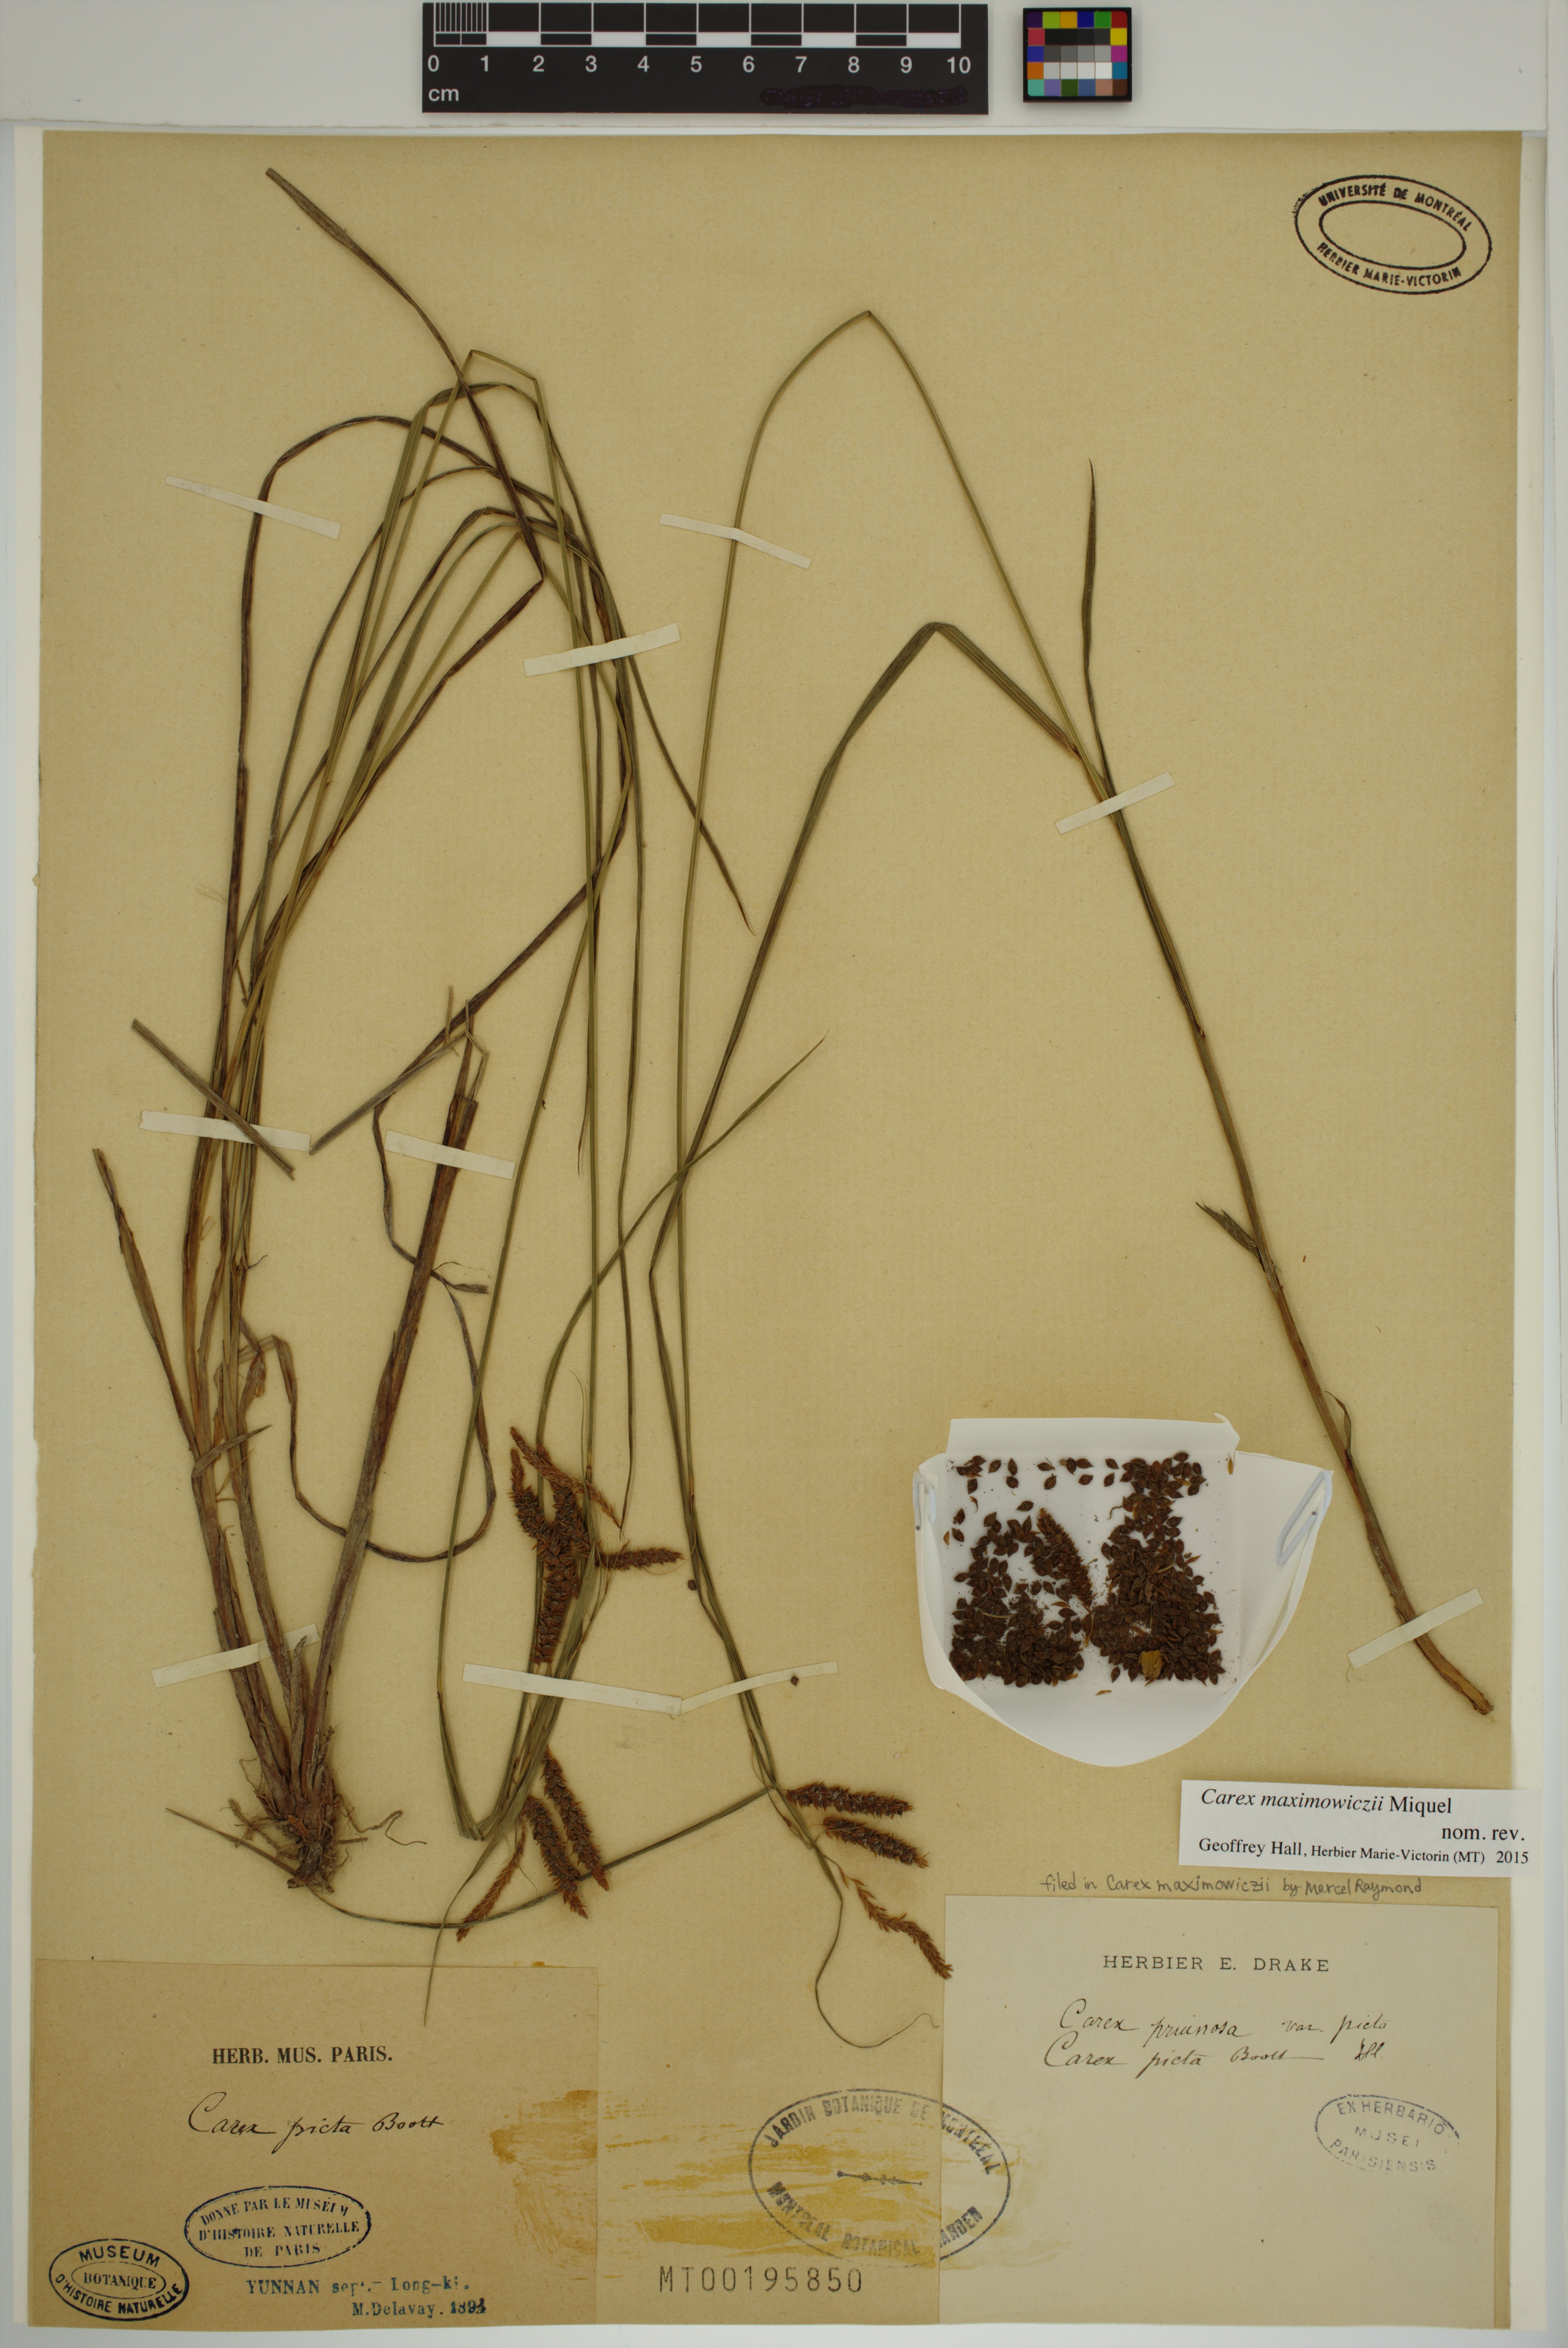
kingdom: Plantae
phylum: Tracheophyta
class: Liliopsida
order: Poales
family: Cyperaceae
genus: Carex
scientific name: Carex maximowiczii
